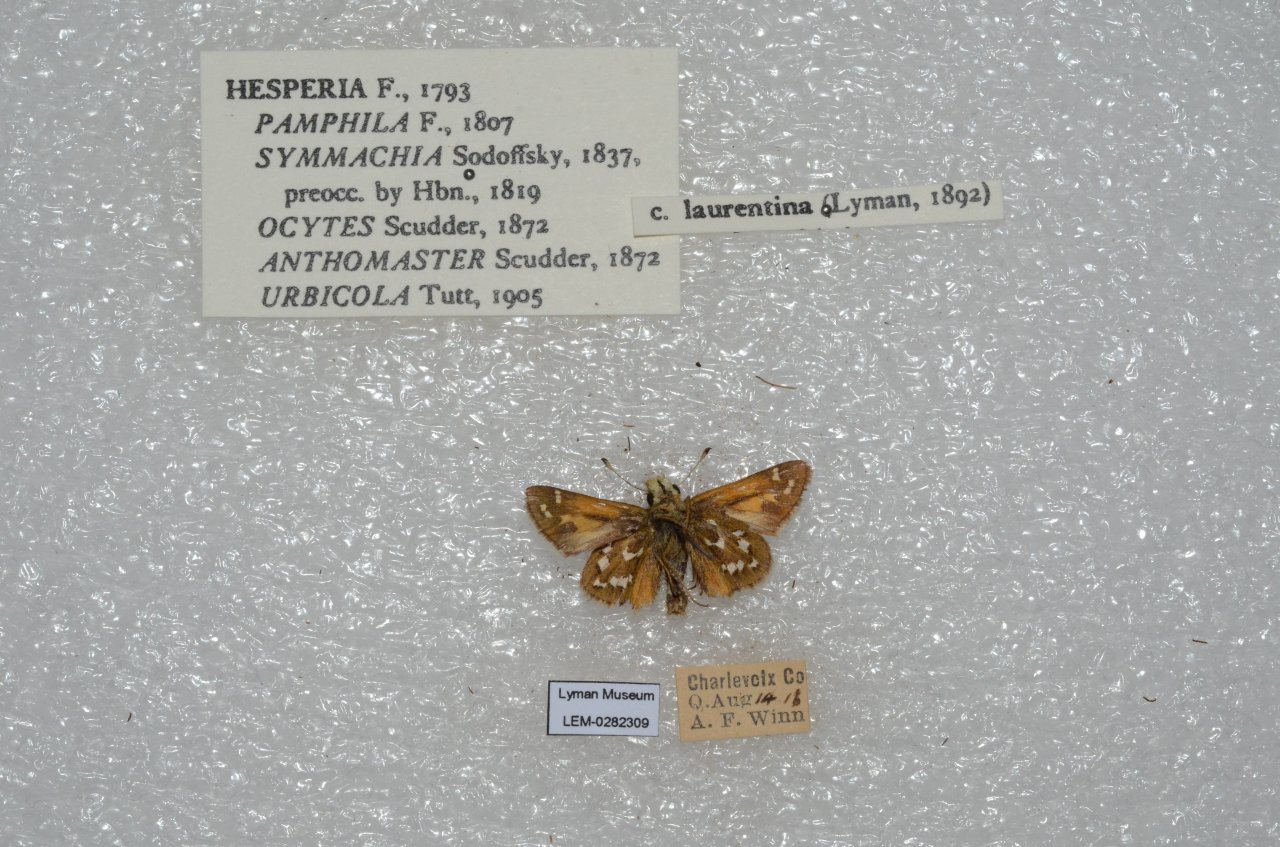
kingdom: Animalia
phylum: Arthropoda
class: Insecta
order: Lepidoptera
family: Hesperiidae
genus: Hesperia
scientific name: Hesperia comma
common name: Common Branded Skipper
